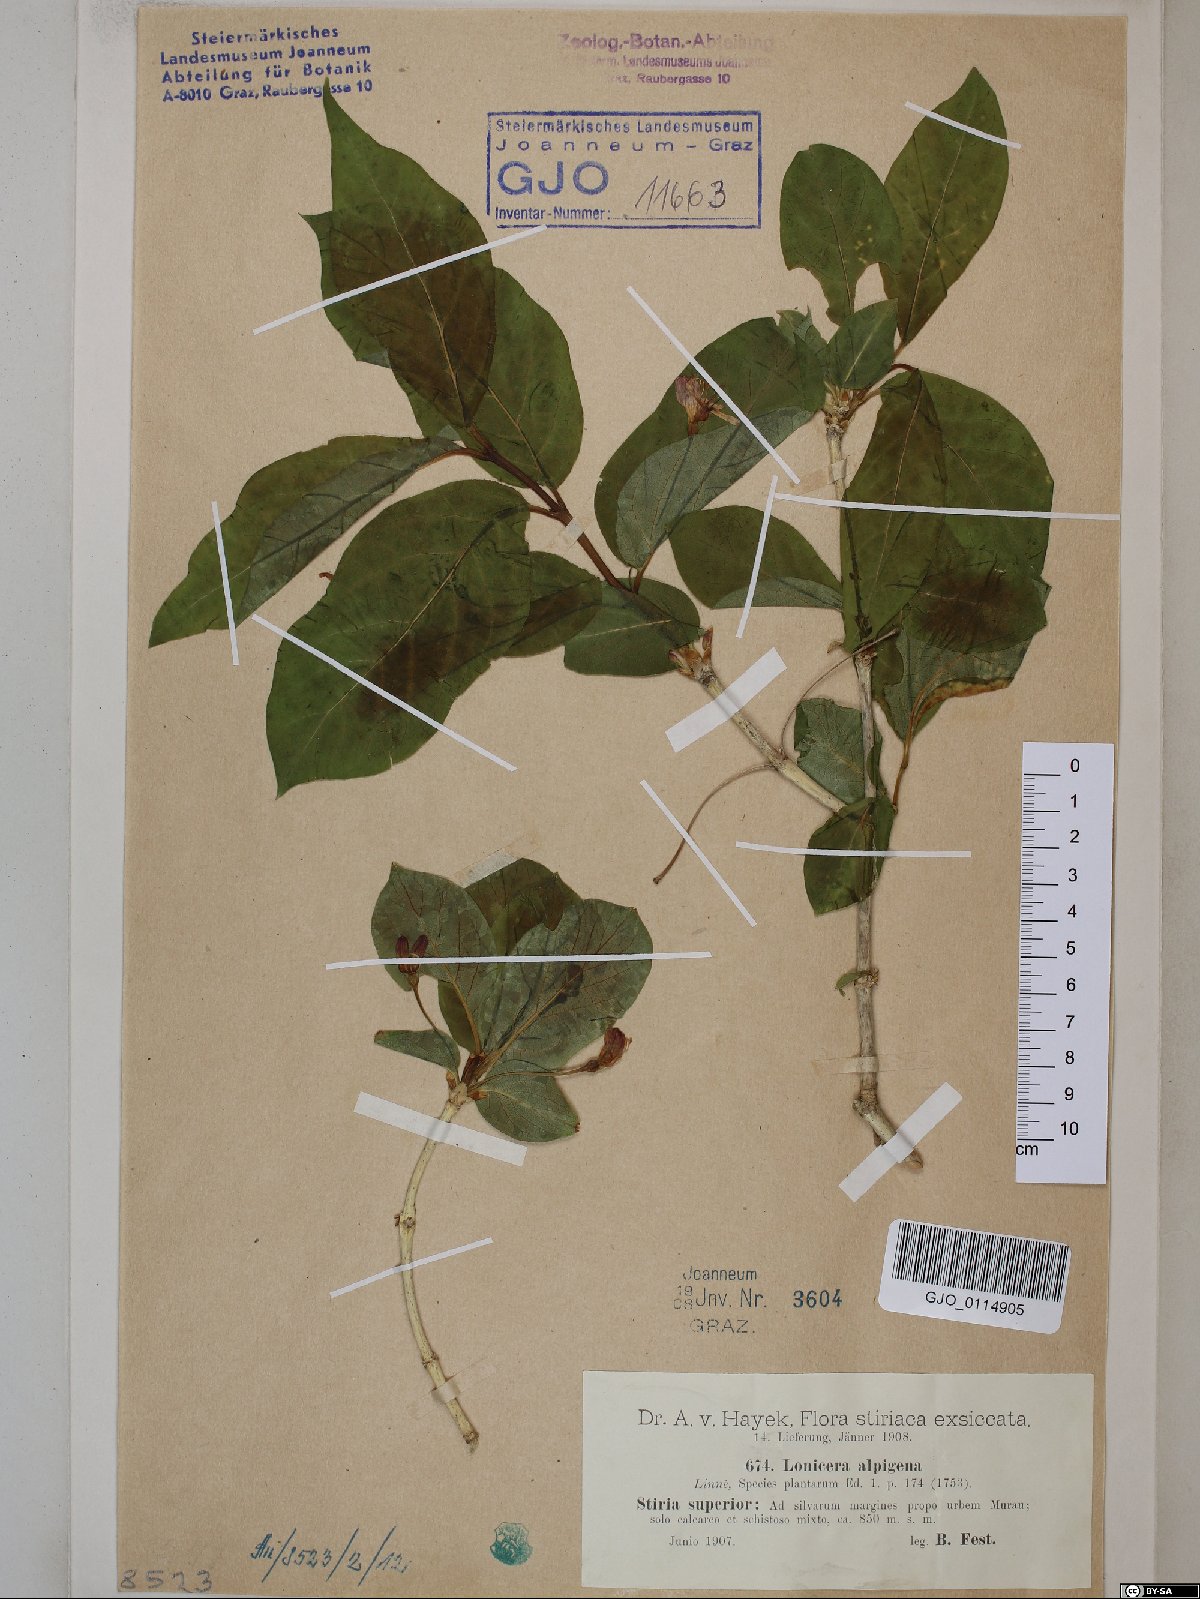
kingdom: Plantae
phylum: Tracheophyta
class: Magnoliopsida
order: Dipsacales
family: Caprifoliaceae
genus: Lonicera
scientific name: Lonicera alpigena
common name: Alpine honeysuckle
